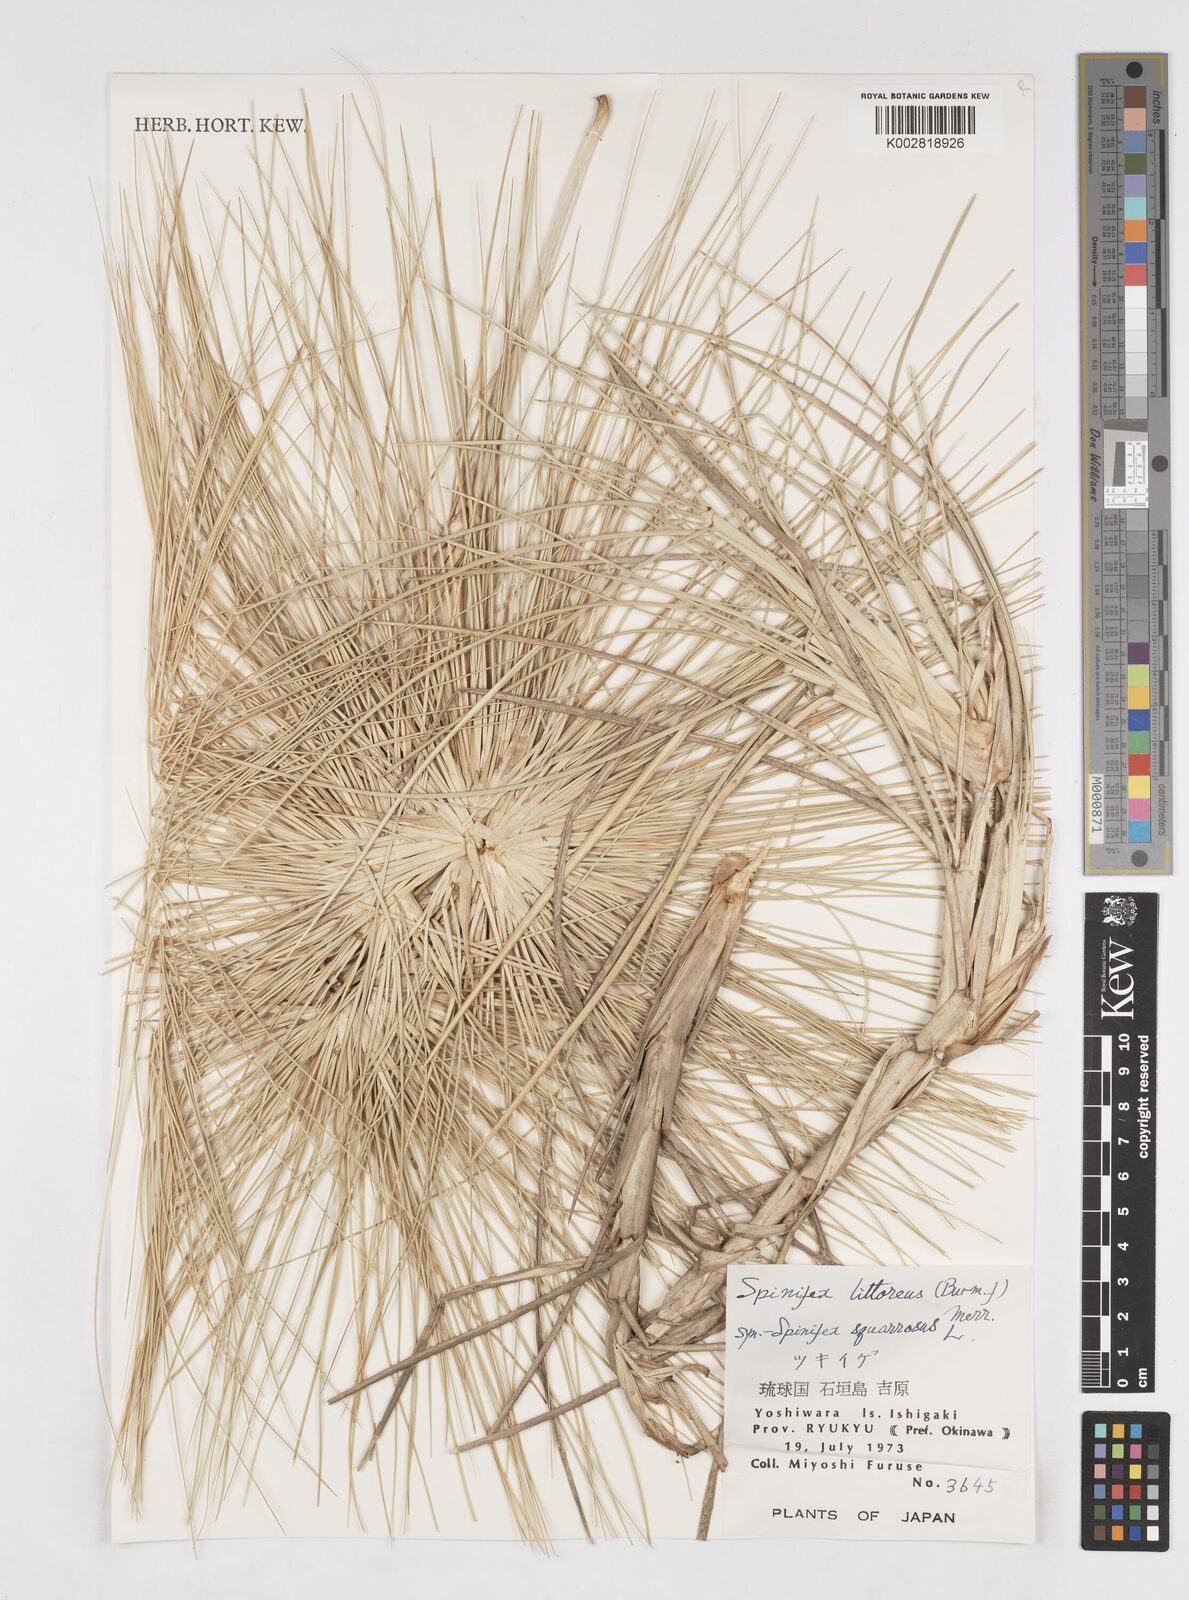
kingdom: Plantae
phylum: Tracheophyta
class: Liliopsida
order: Poales
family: Poaceae
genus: Spinifex
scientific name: Spinifex littoreus
